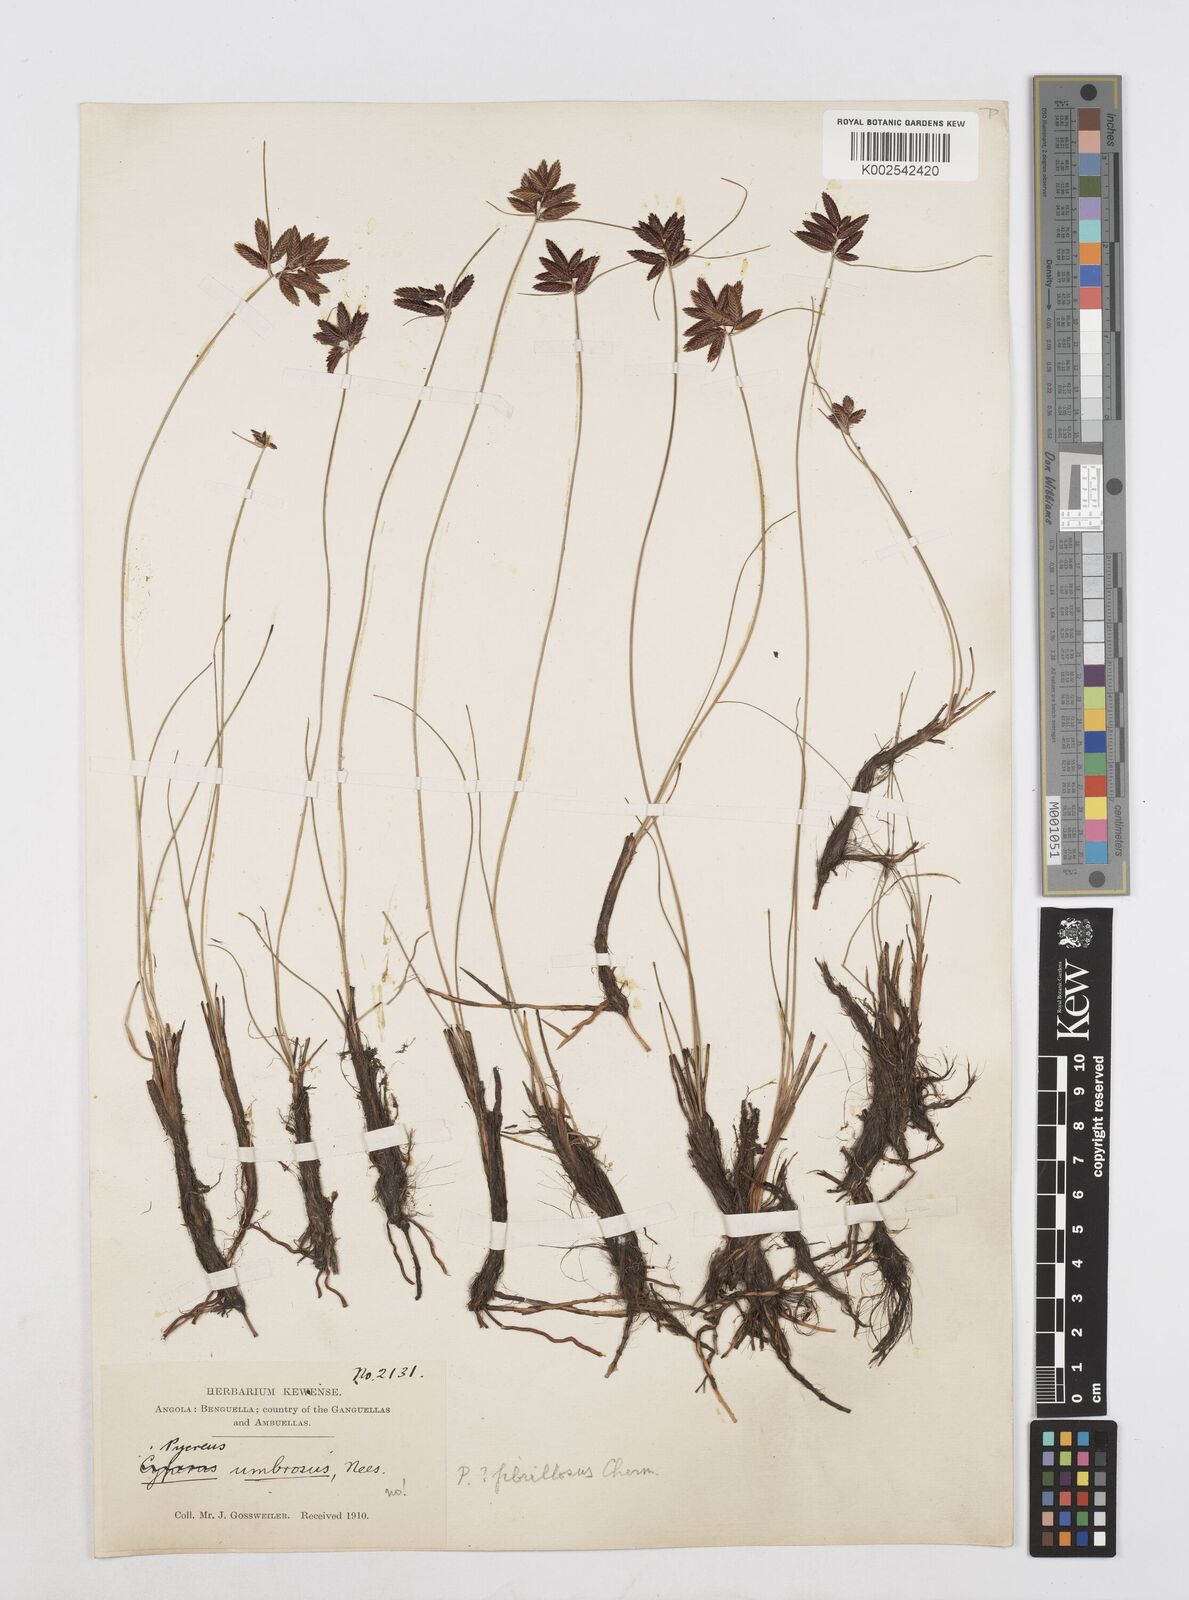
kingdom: Plantae
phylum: Tracheophyta
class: Liliopsida
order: Poales
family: Cyperaceae
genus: Cyperus
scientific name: Cyperus nigricans
